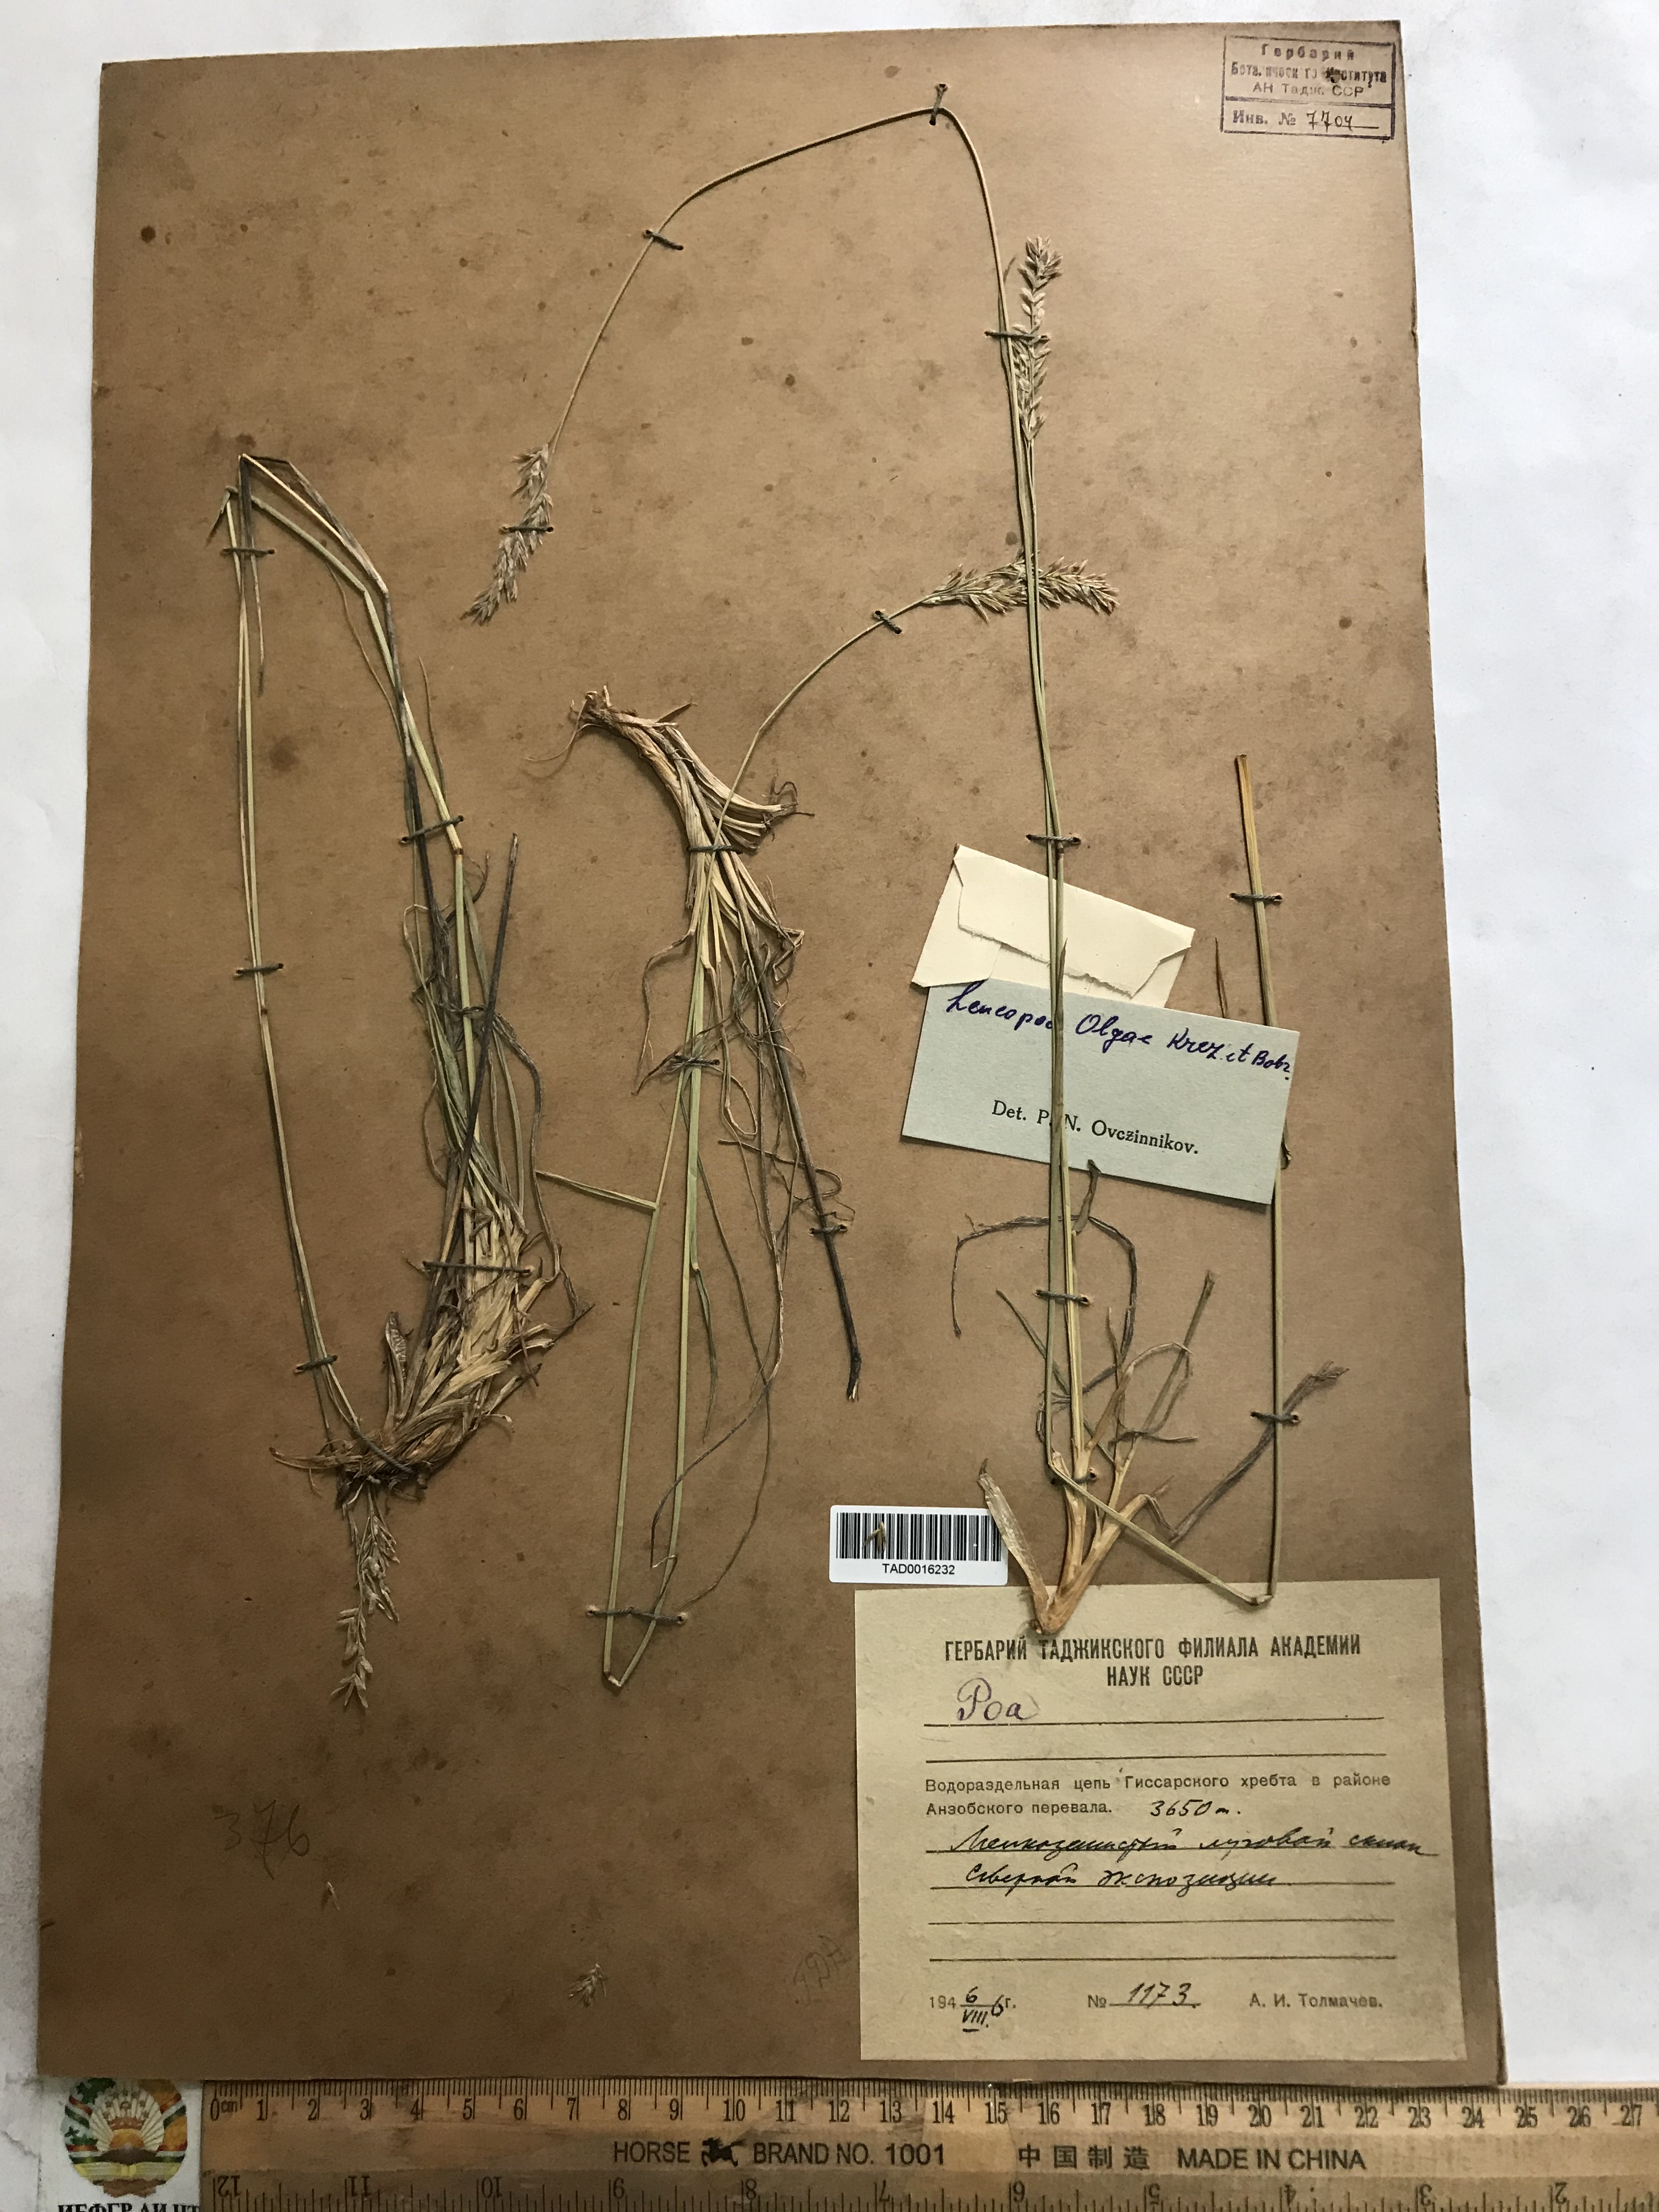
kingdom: Plantae
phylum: Tracheophyta
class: Liliopsida
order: Poales
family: Poaceae
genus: Festuca
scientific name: Festuca
